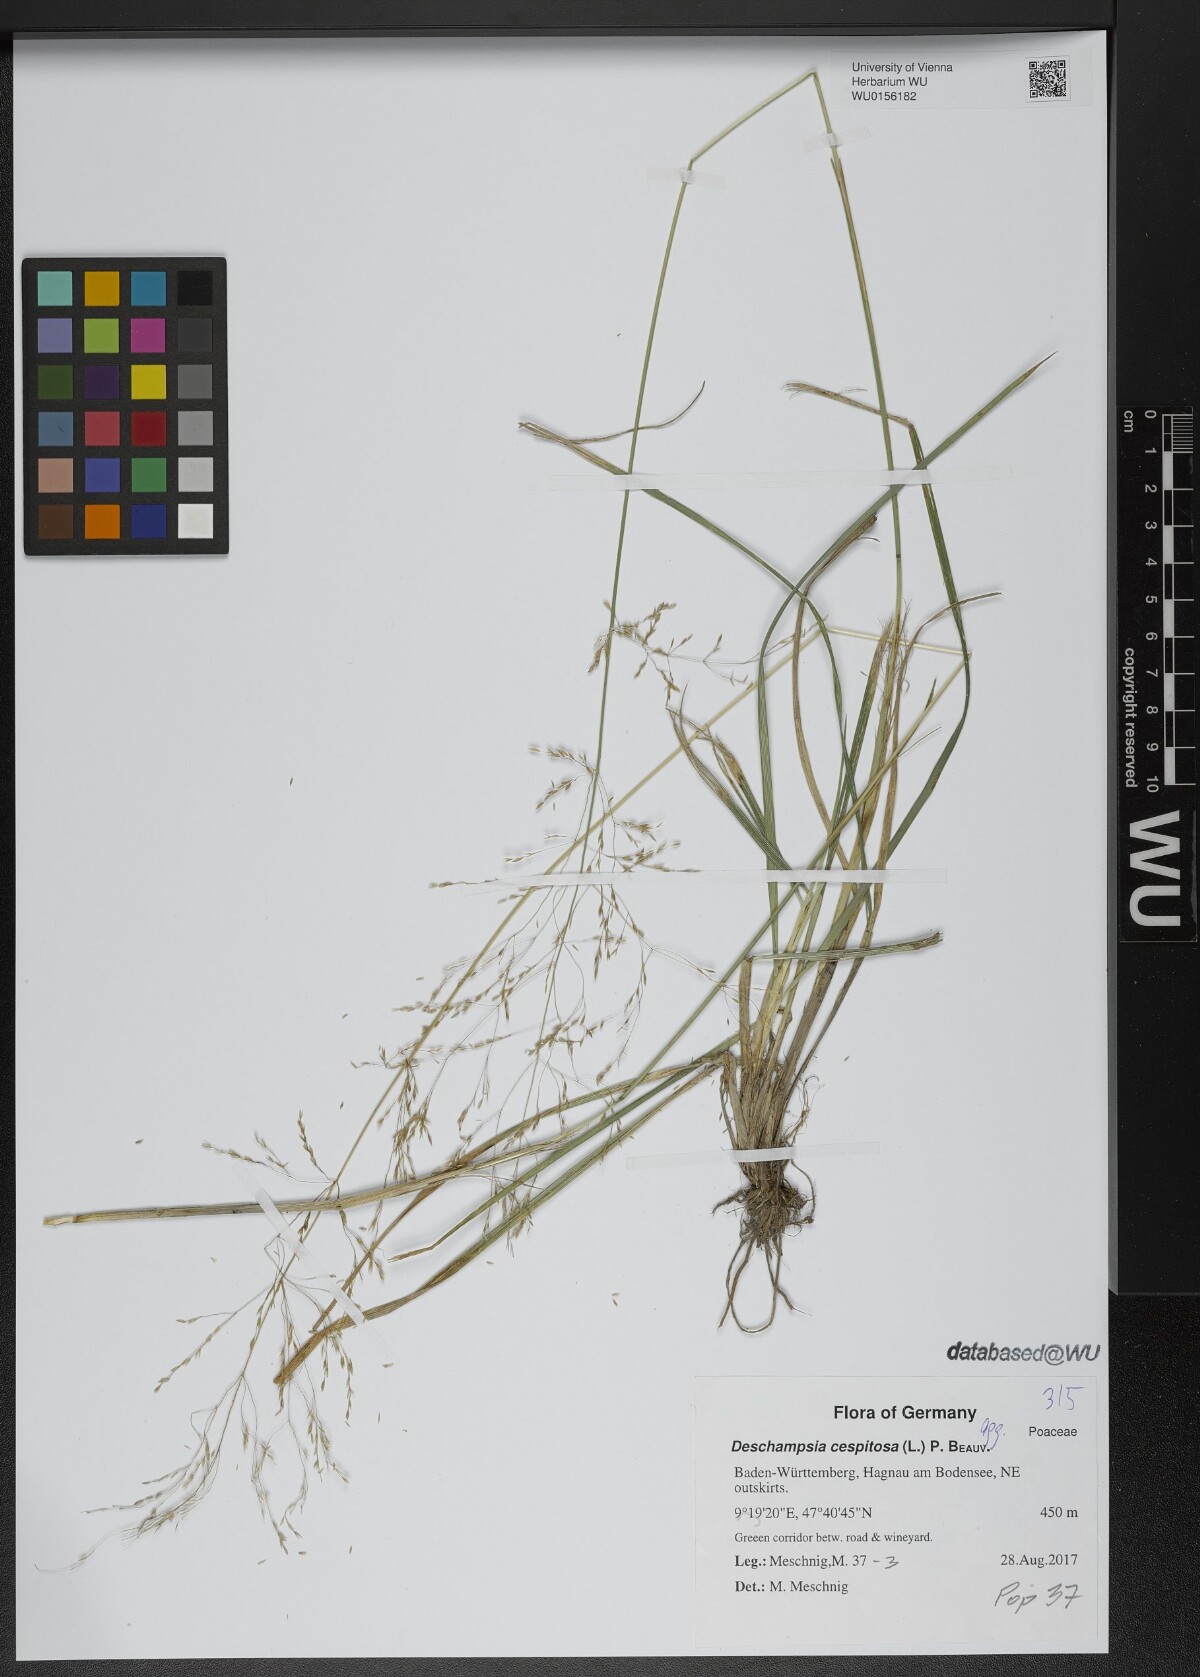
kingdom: Plantae
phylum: Tracheophyta
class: Liliopsida
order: Poales
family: Poaceae
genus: Deschampsia
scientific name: Deschampsia cespitosa
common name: Tufted hair-grass
